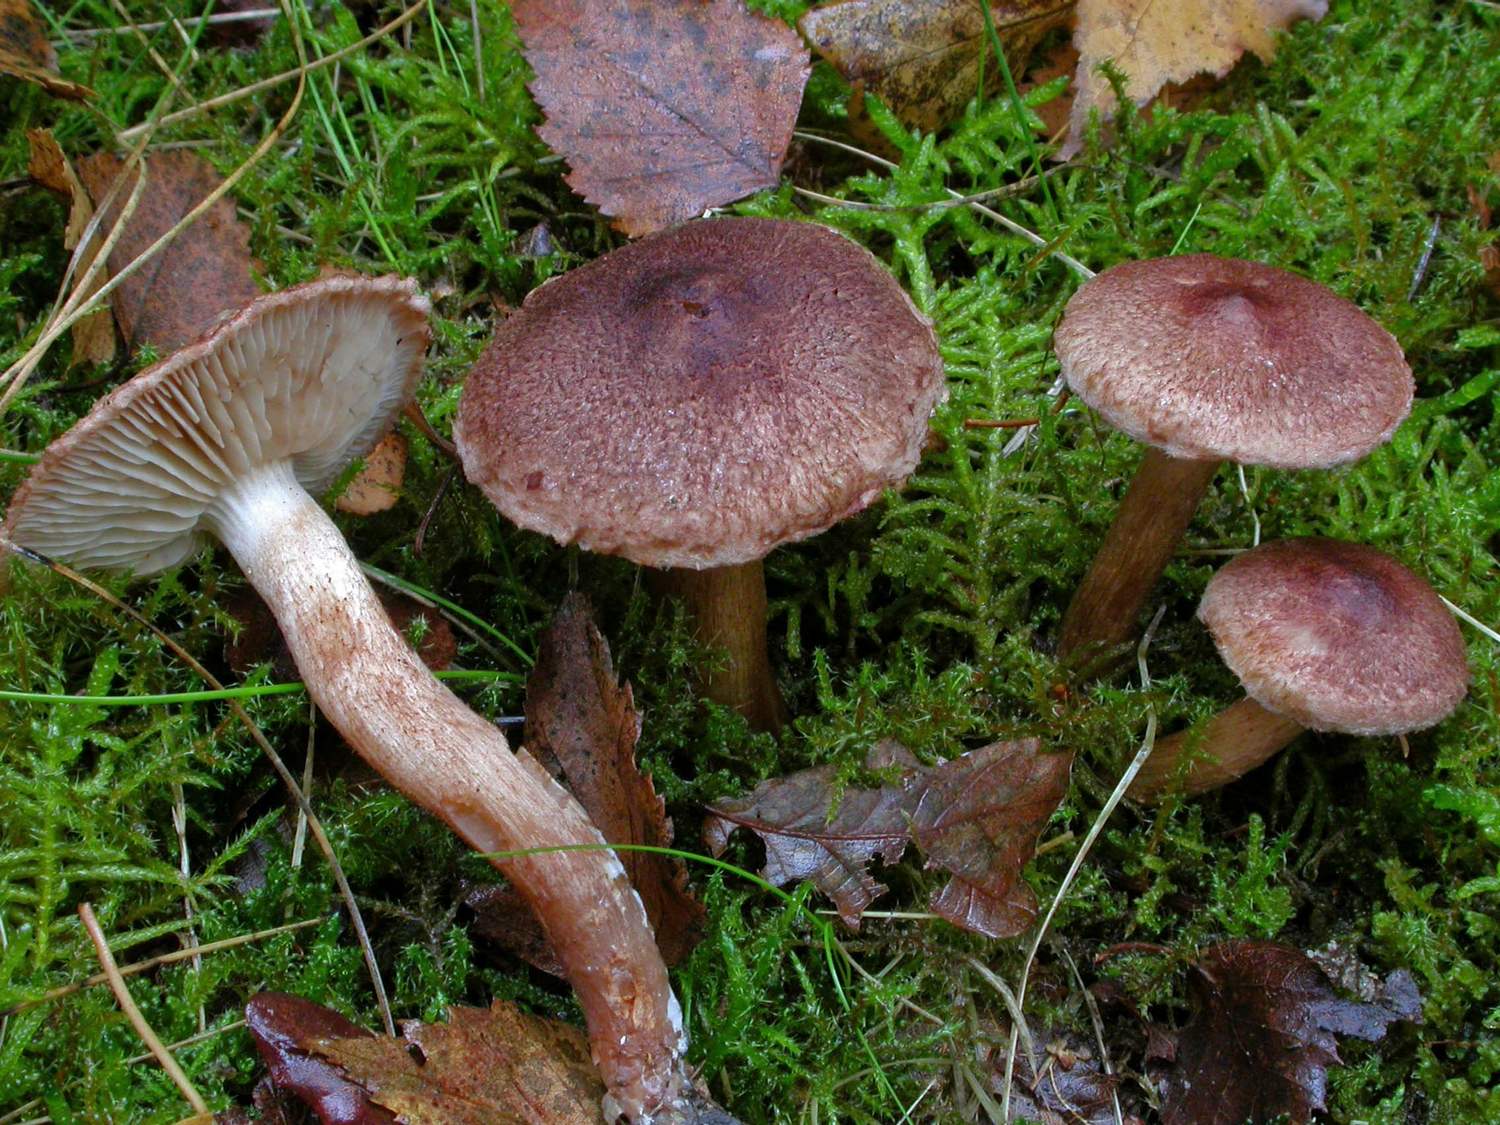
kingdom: Fungi
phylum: Basidiomycota
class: Agaricomycetes
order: Agaricales
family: Tricholomataceae
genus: Tricholoma
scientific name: Tricholoma vaccinum
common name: ko-ridderhat
